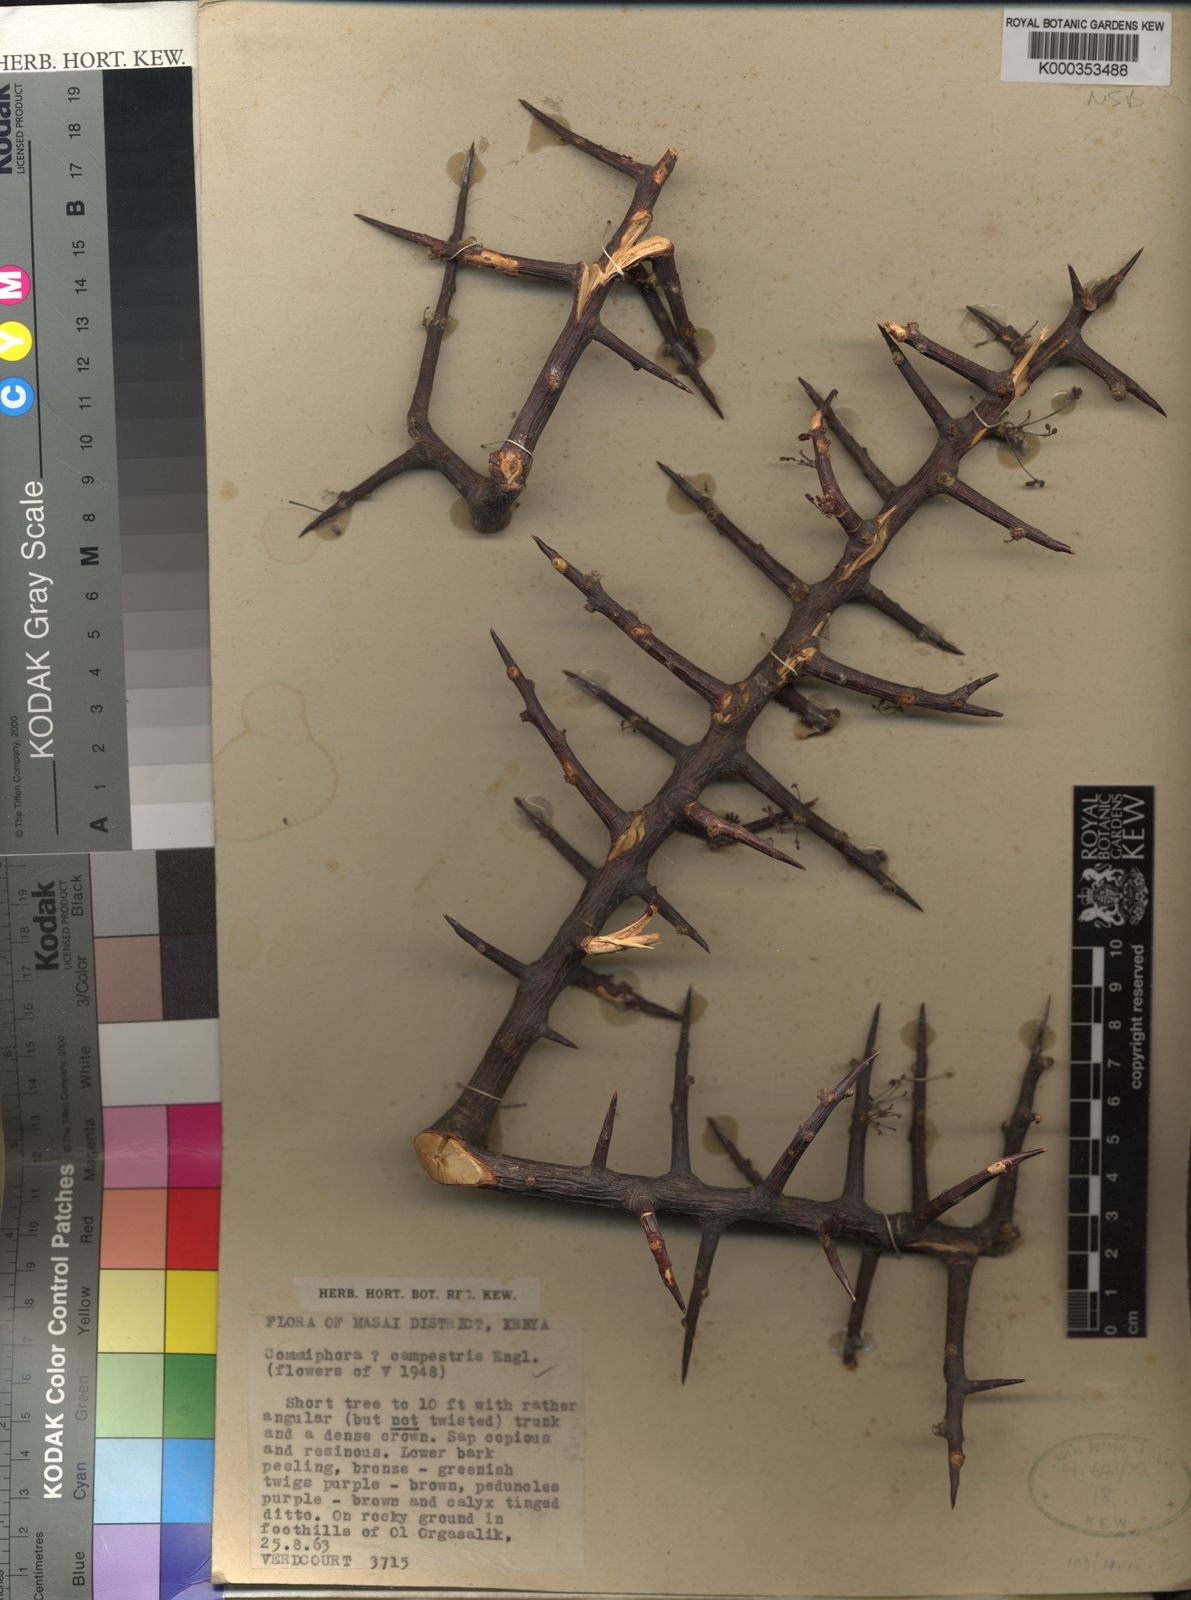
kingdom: Plantae
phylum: Tracheophyta
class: Magnoliopsida
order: Sapindales
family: Burseraceae
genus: Commiphora
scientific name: Commiphora campestris
